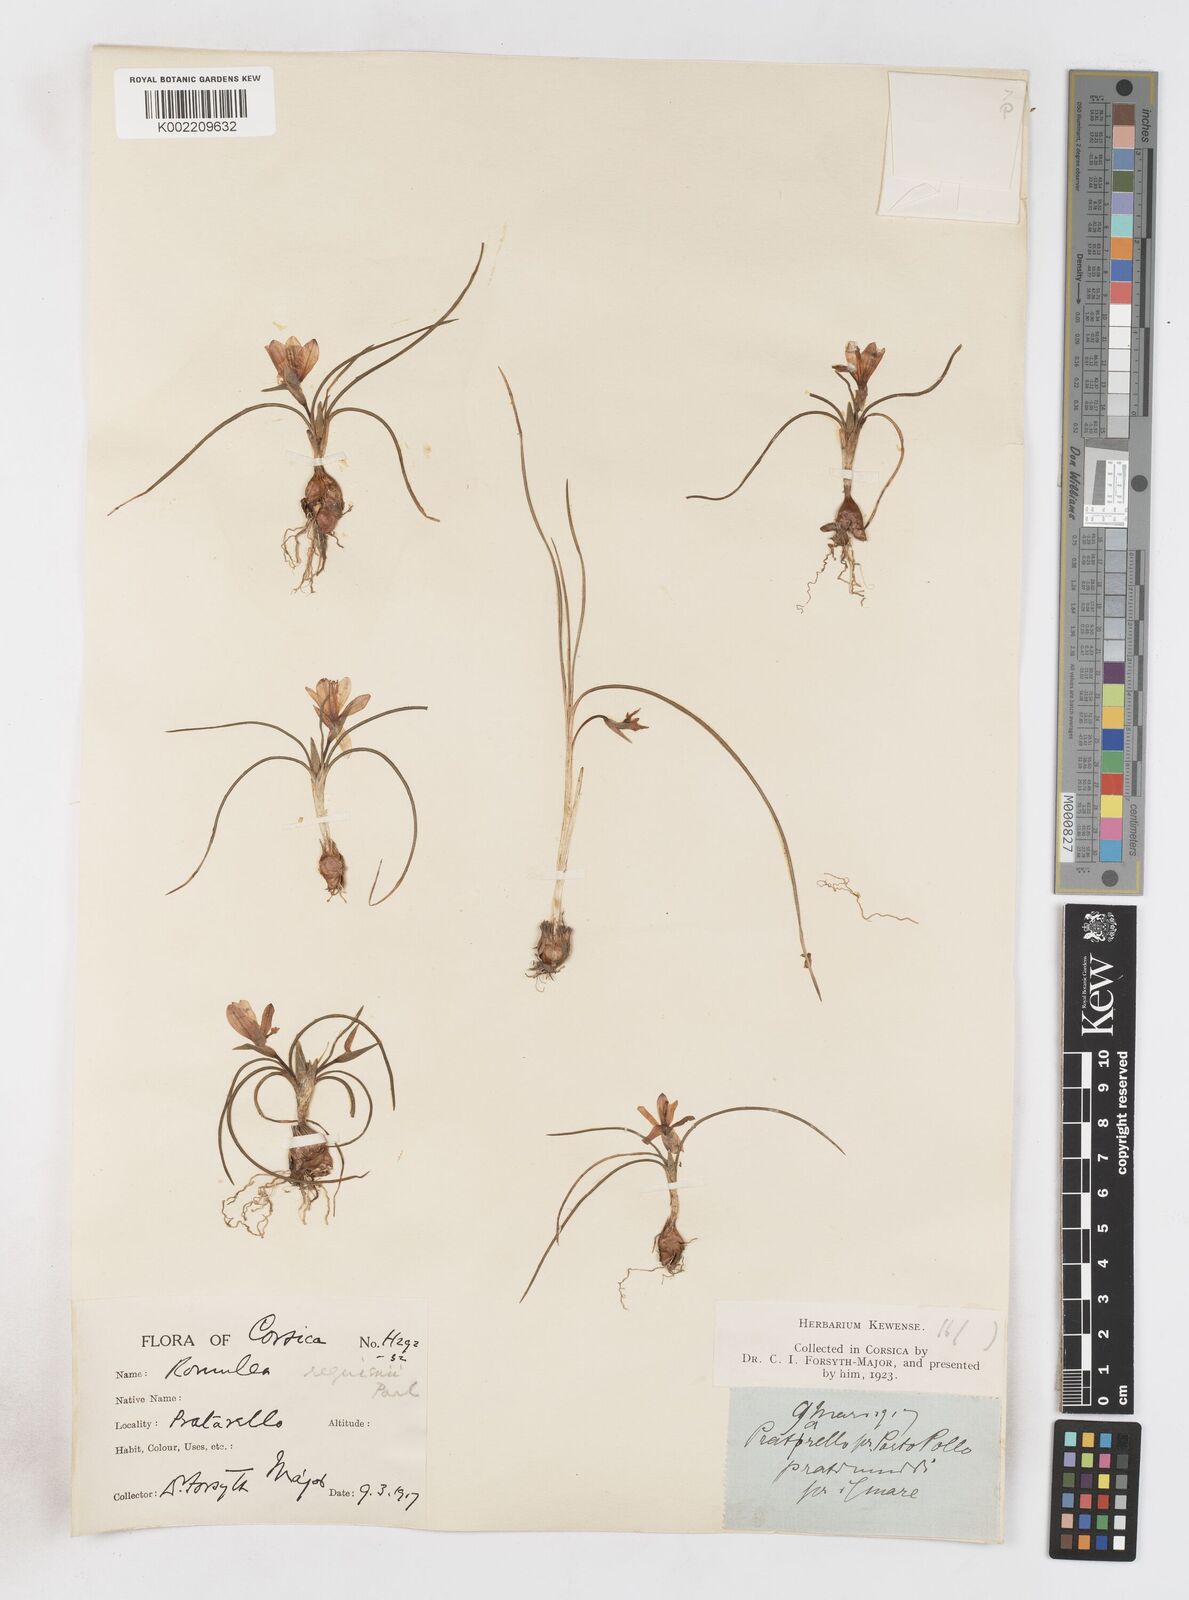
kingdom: Plantae
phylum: Tracheophyta
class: Liliopsida
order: Asparagales
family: Iridaceae
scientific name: Iridaceae
